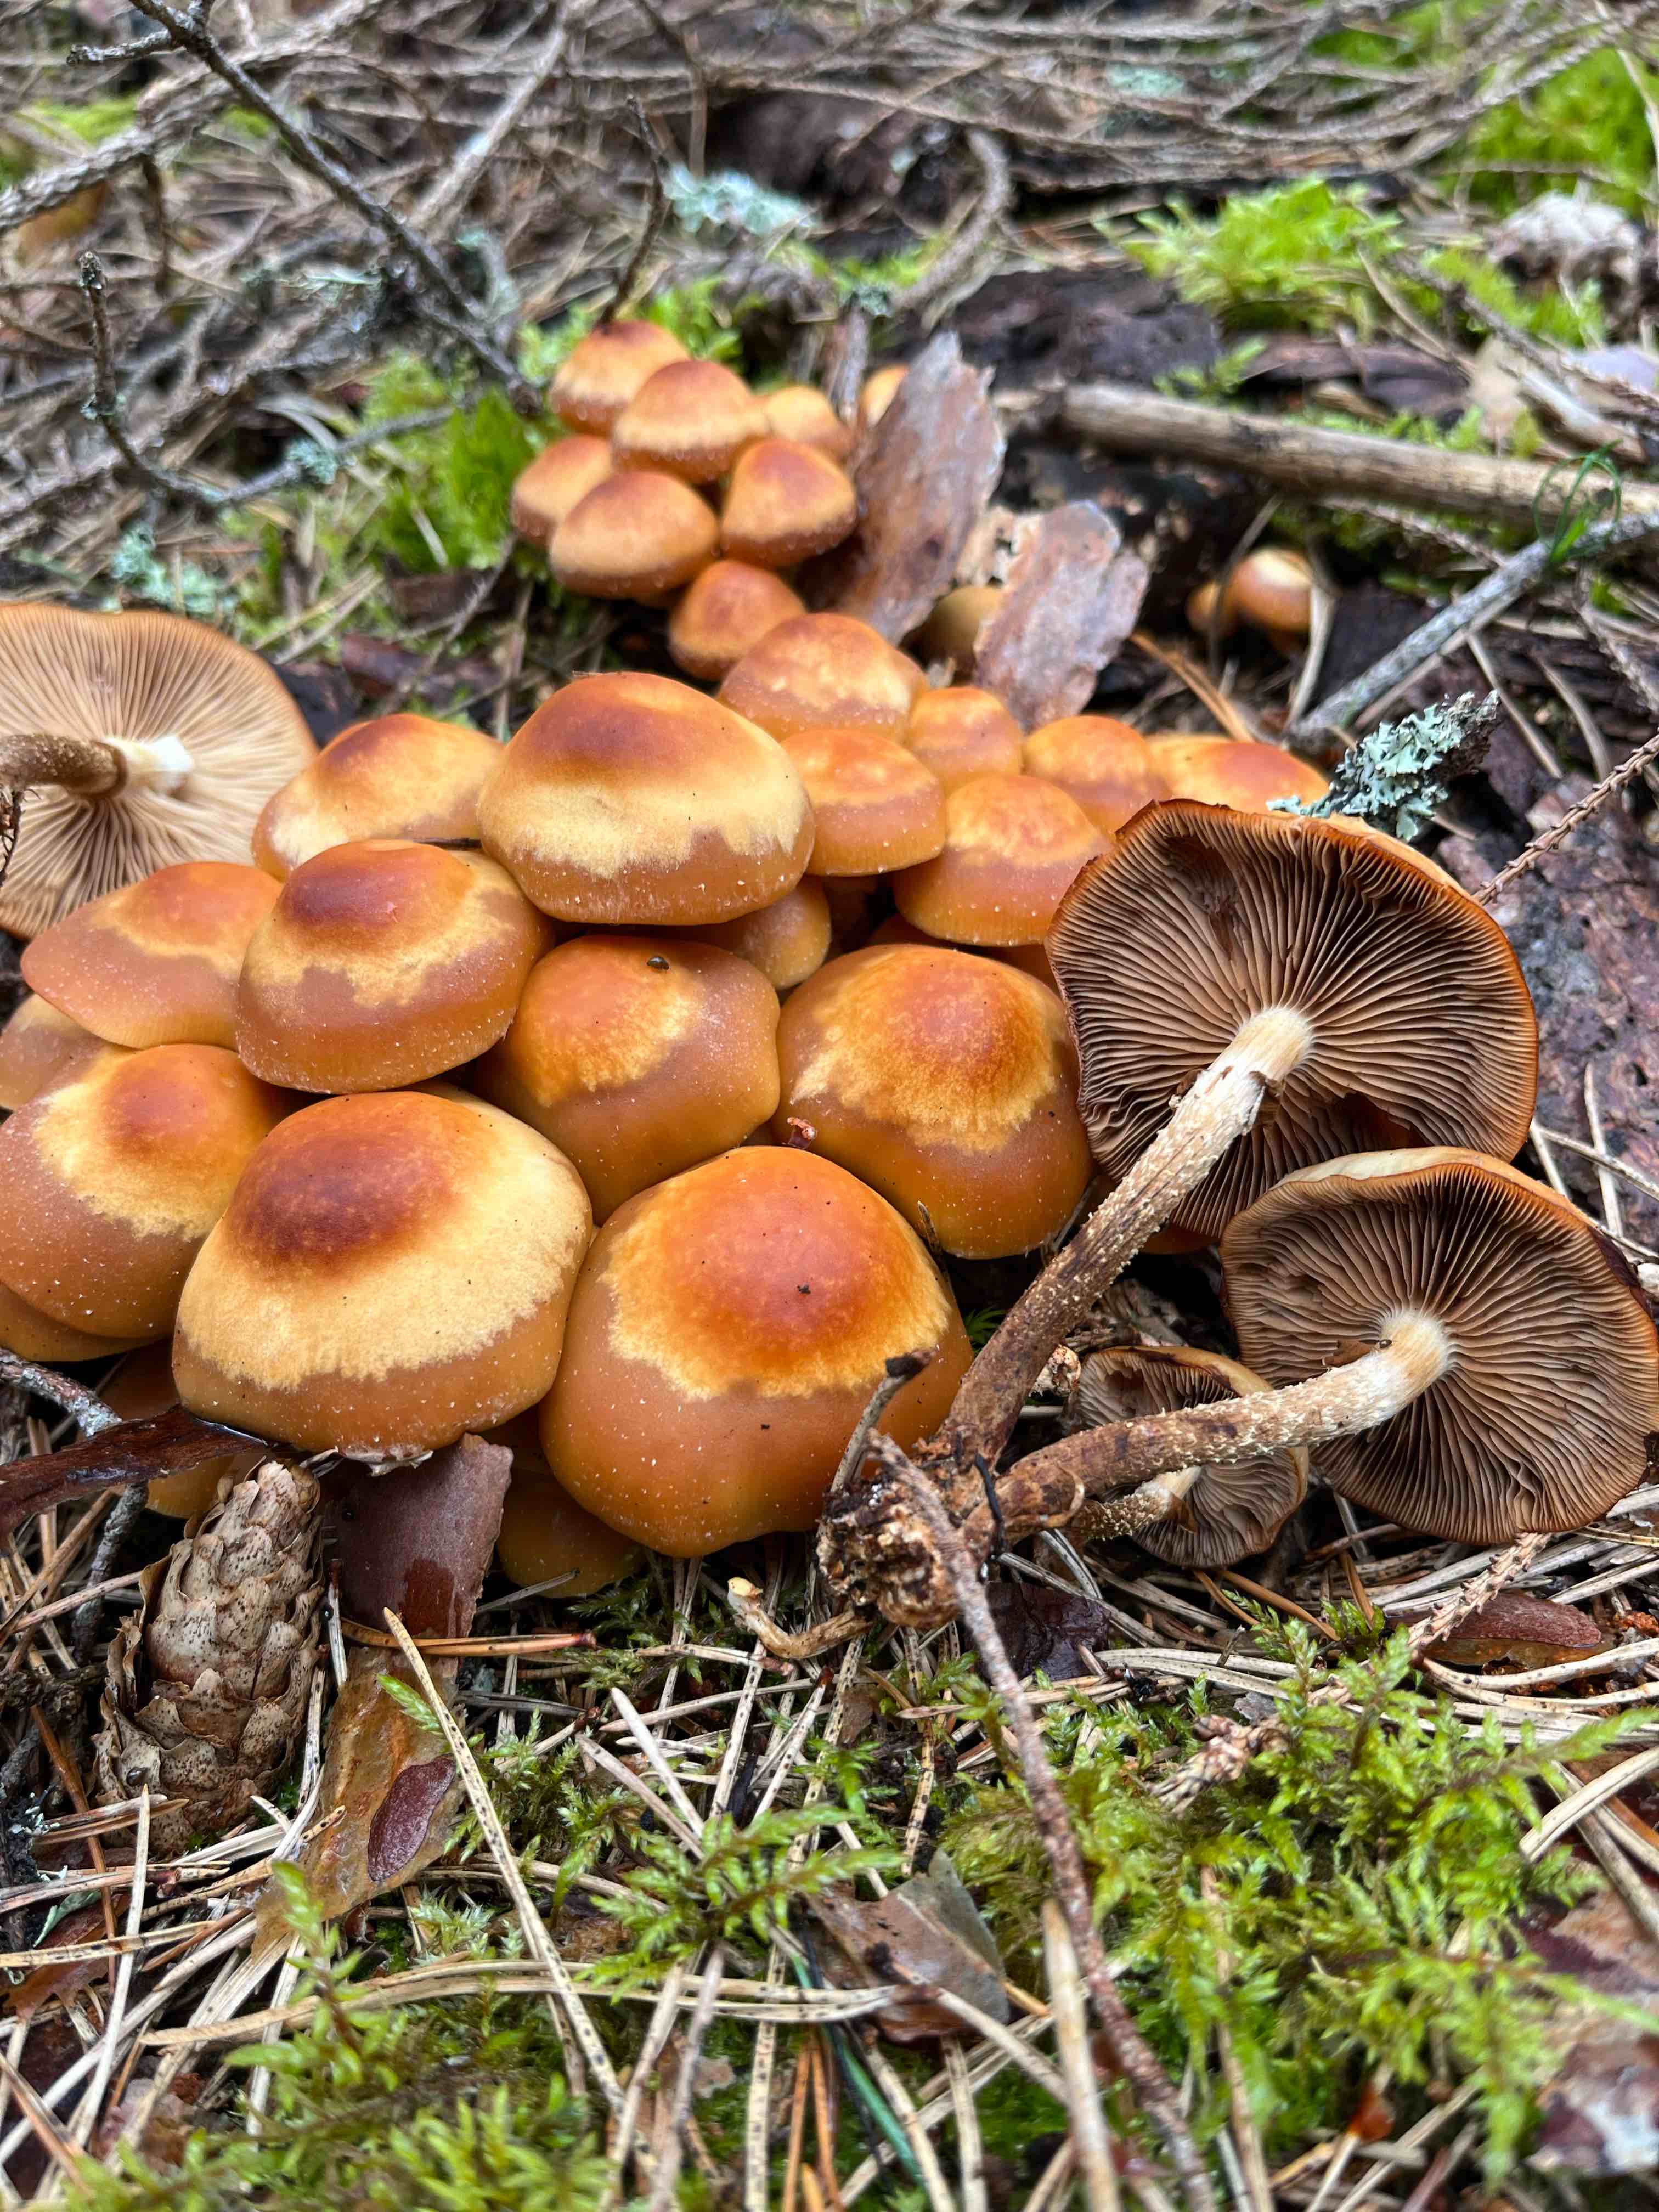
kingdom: Fungi
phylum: Basidiomycota
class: Agaricomycetes
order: Agaricales
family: Strophariaceae
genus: Kuehneromyces
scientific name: Kuehneromyces mutabilis
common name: foranderlig skælhat
